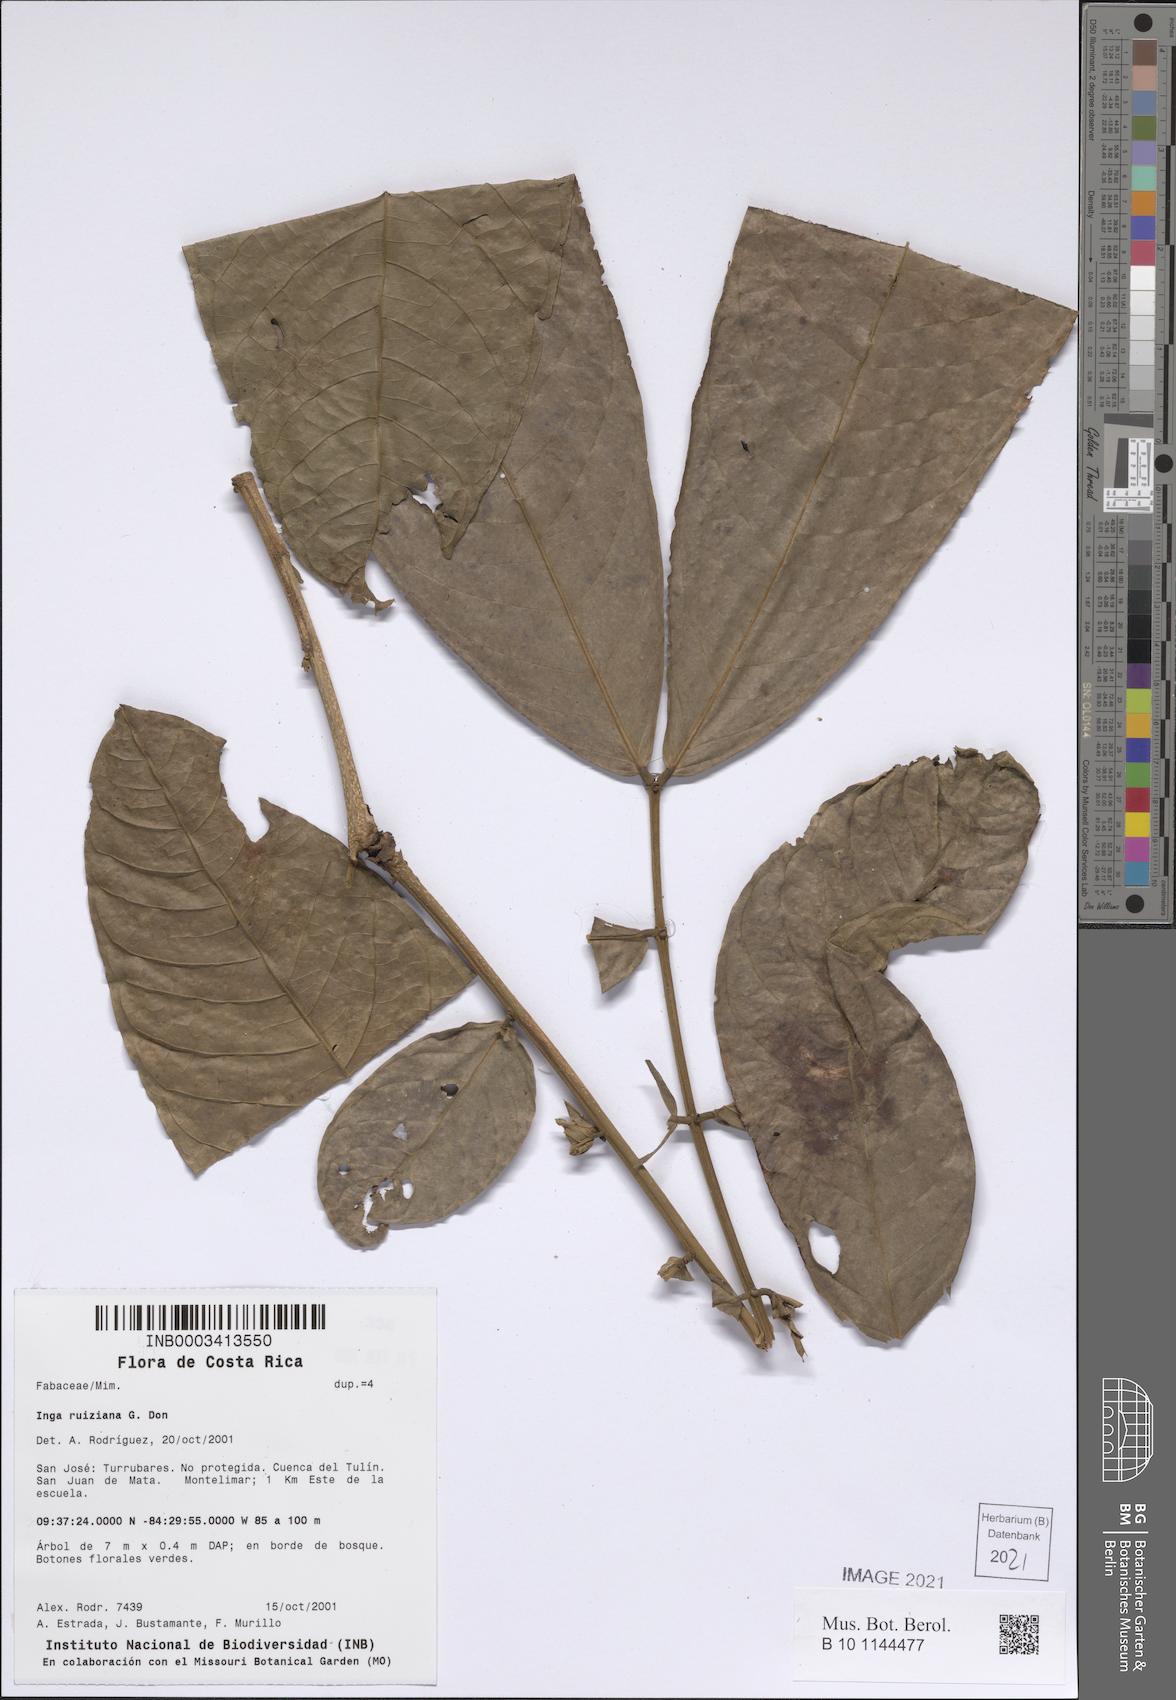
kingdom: Plantae
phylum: Tracheophyta
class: Magnoliopsida
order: Fabales
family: Fabaceae
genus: Inga
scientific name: Inga ruiziana
